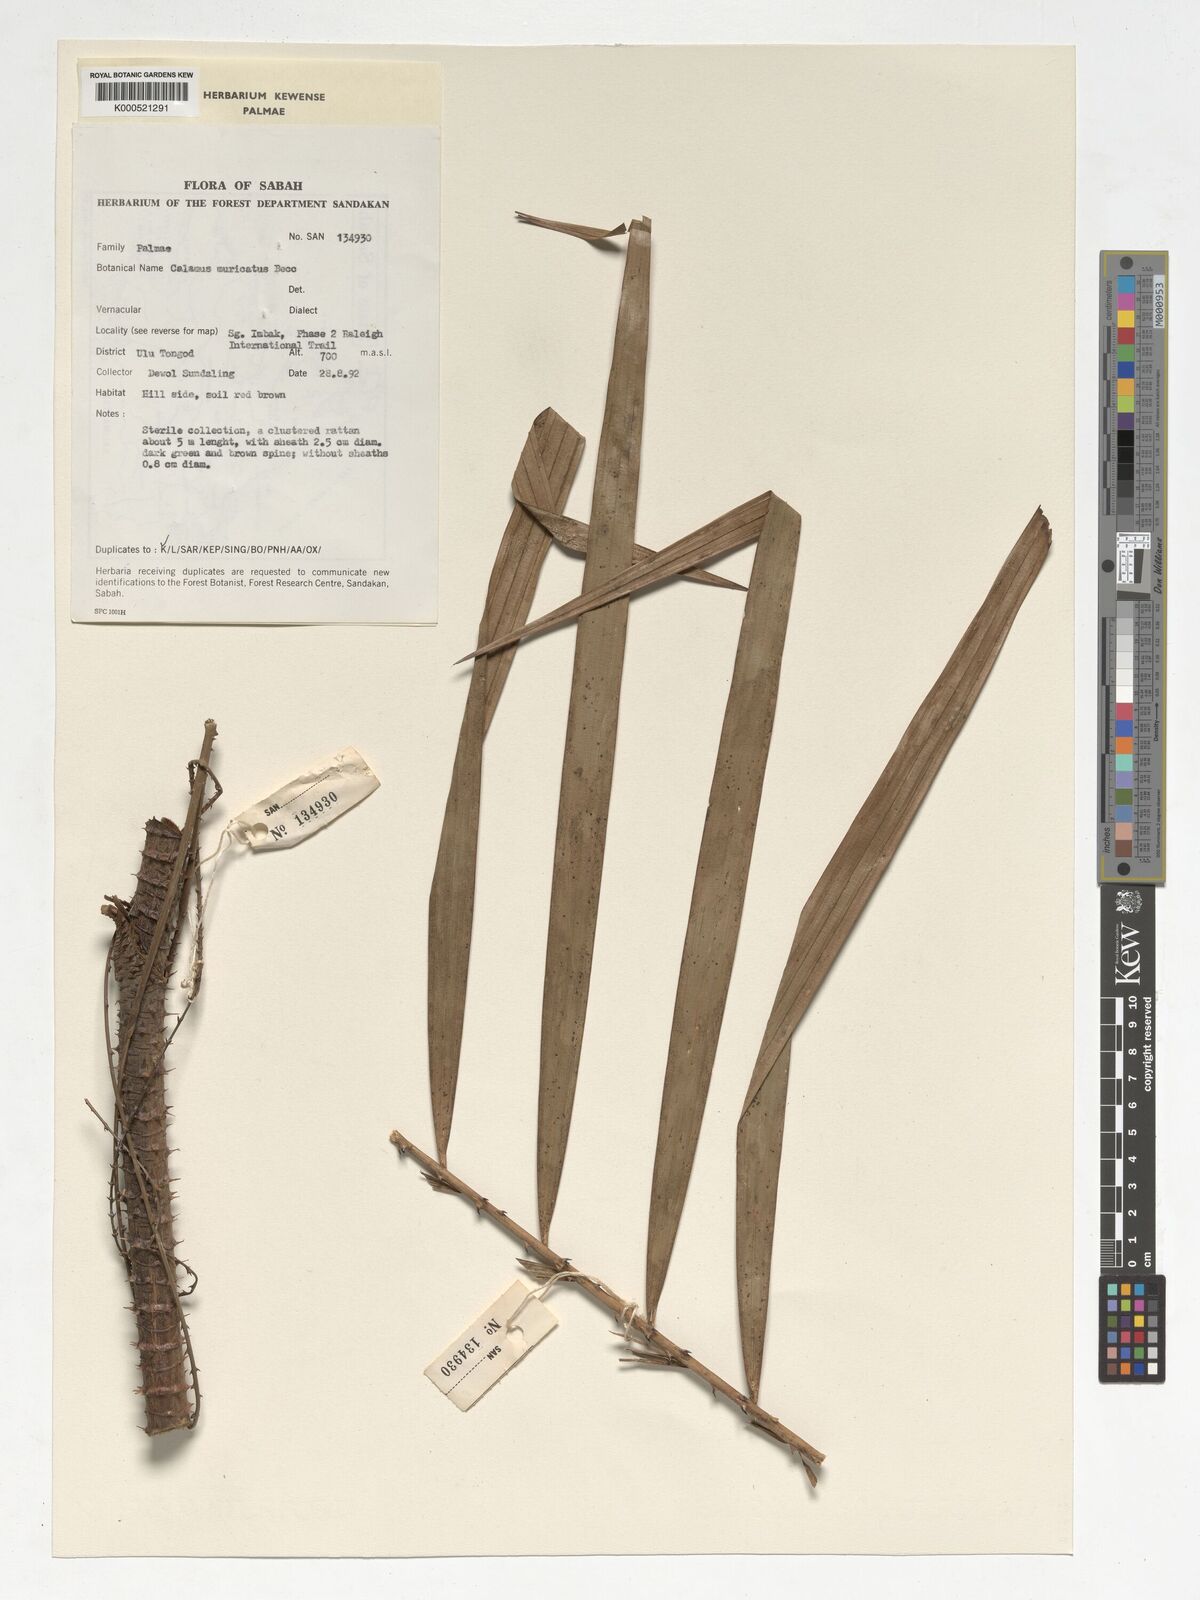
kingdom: Plantae
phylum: Tracheophyta
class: Liliopsida
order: Arecales
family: Arecaceae
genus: Calamus
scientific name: Calamus muricatus
